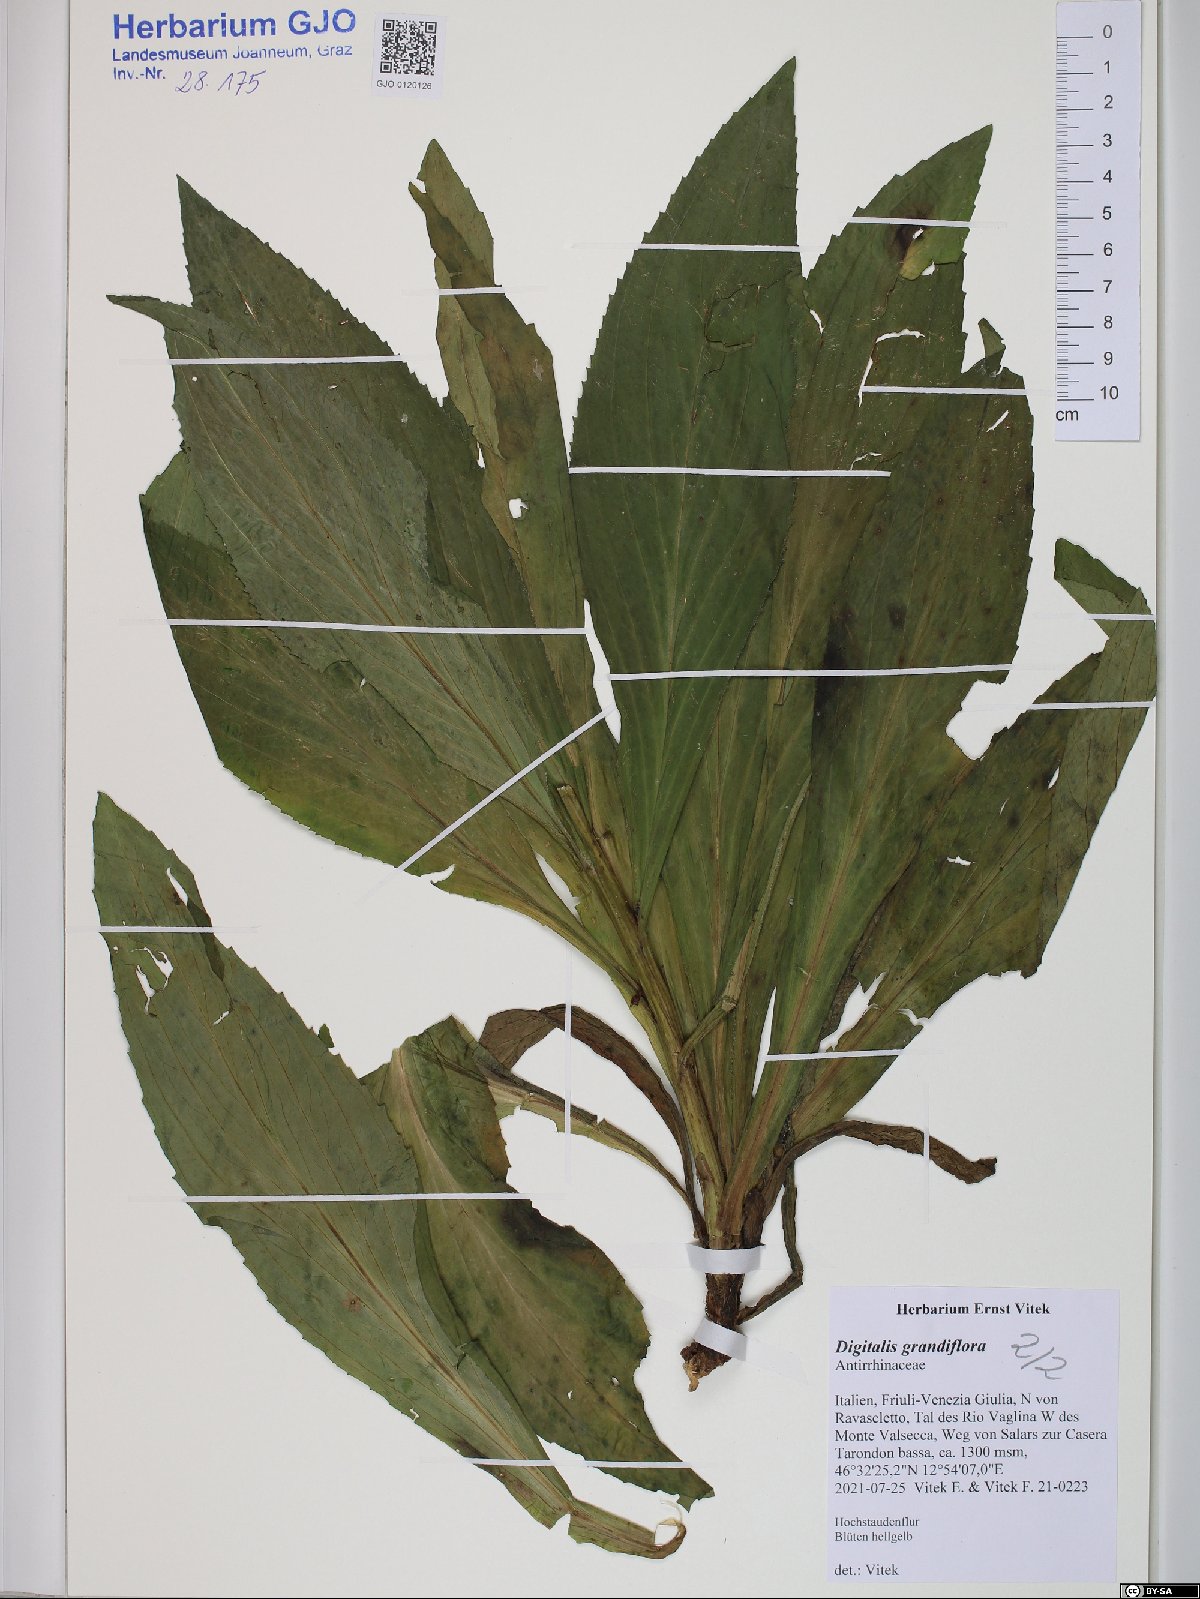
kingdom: Plantae
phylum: Tracheophyta
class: Magnoliopsida
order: Lamiales
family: Plantaginaceae
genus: Digitalis
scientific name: Digitalis grandiflora
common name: Yellow foxglove
